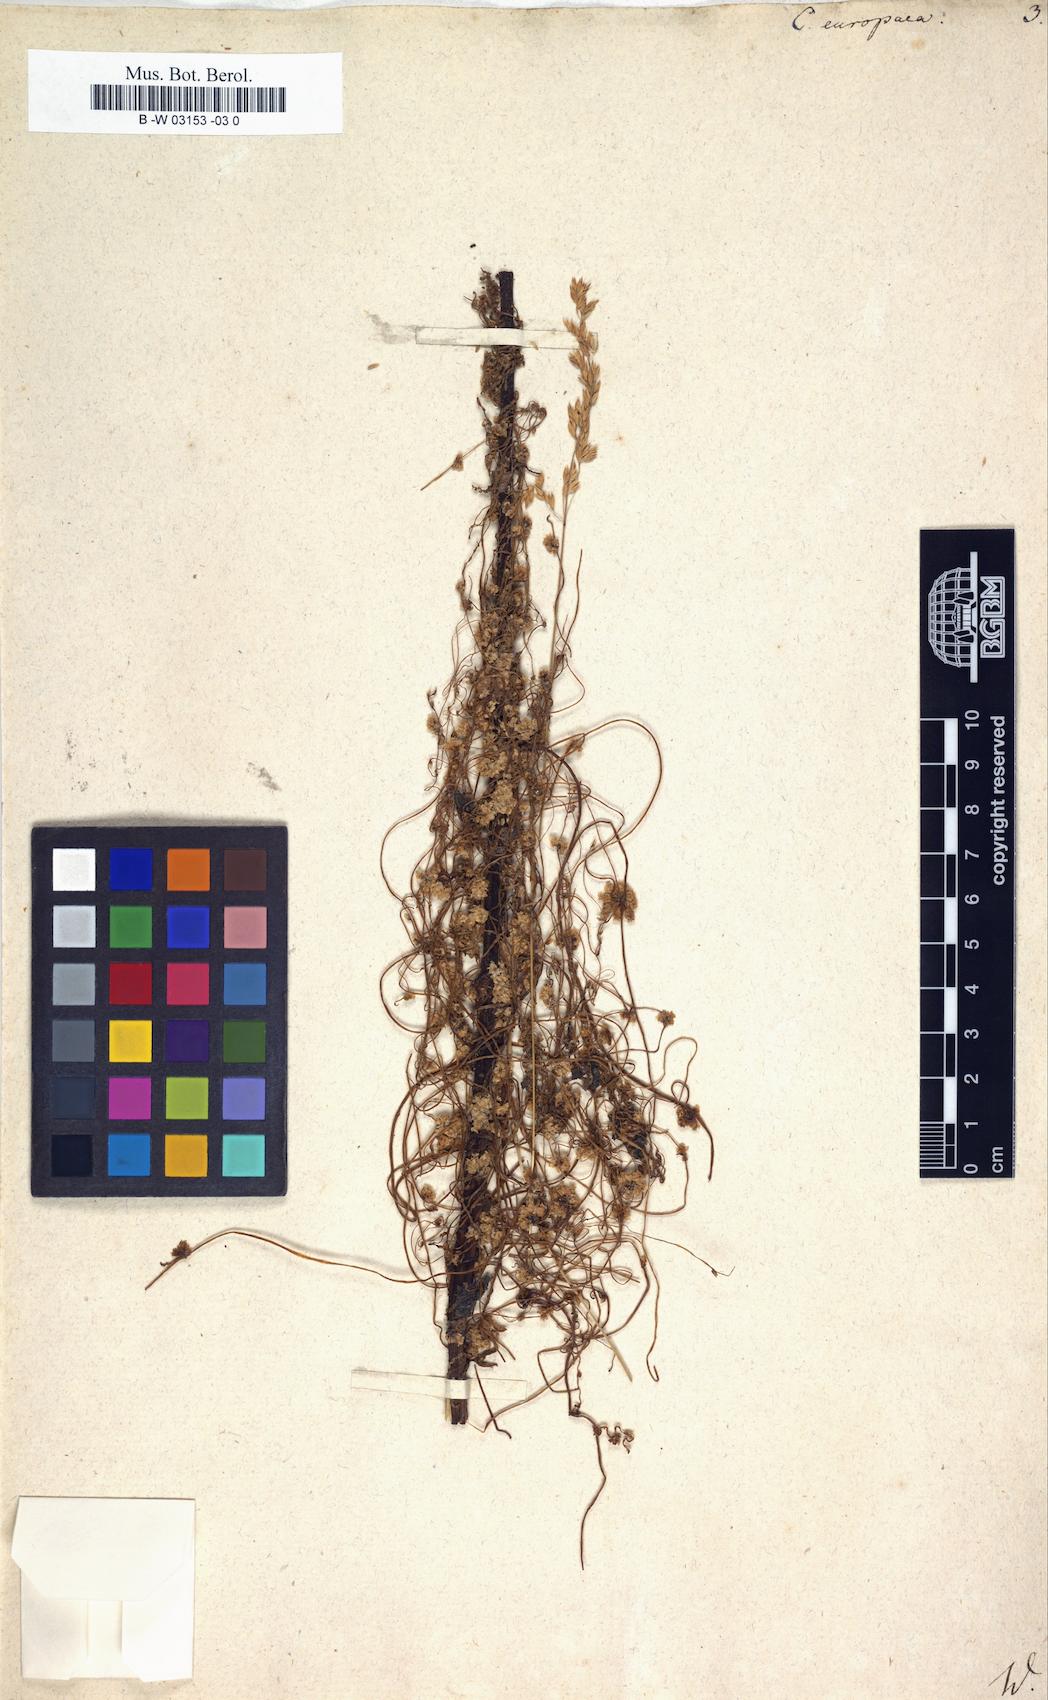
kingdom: Plantae
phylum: Tracheophyta
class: Magnoliopsida
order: Solanales
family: Convolvulaceae
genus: Cuscuta
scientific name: Cuscuta europaea
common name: Greater dodder
